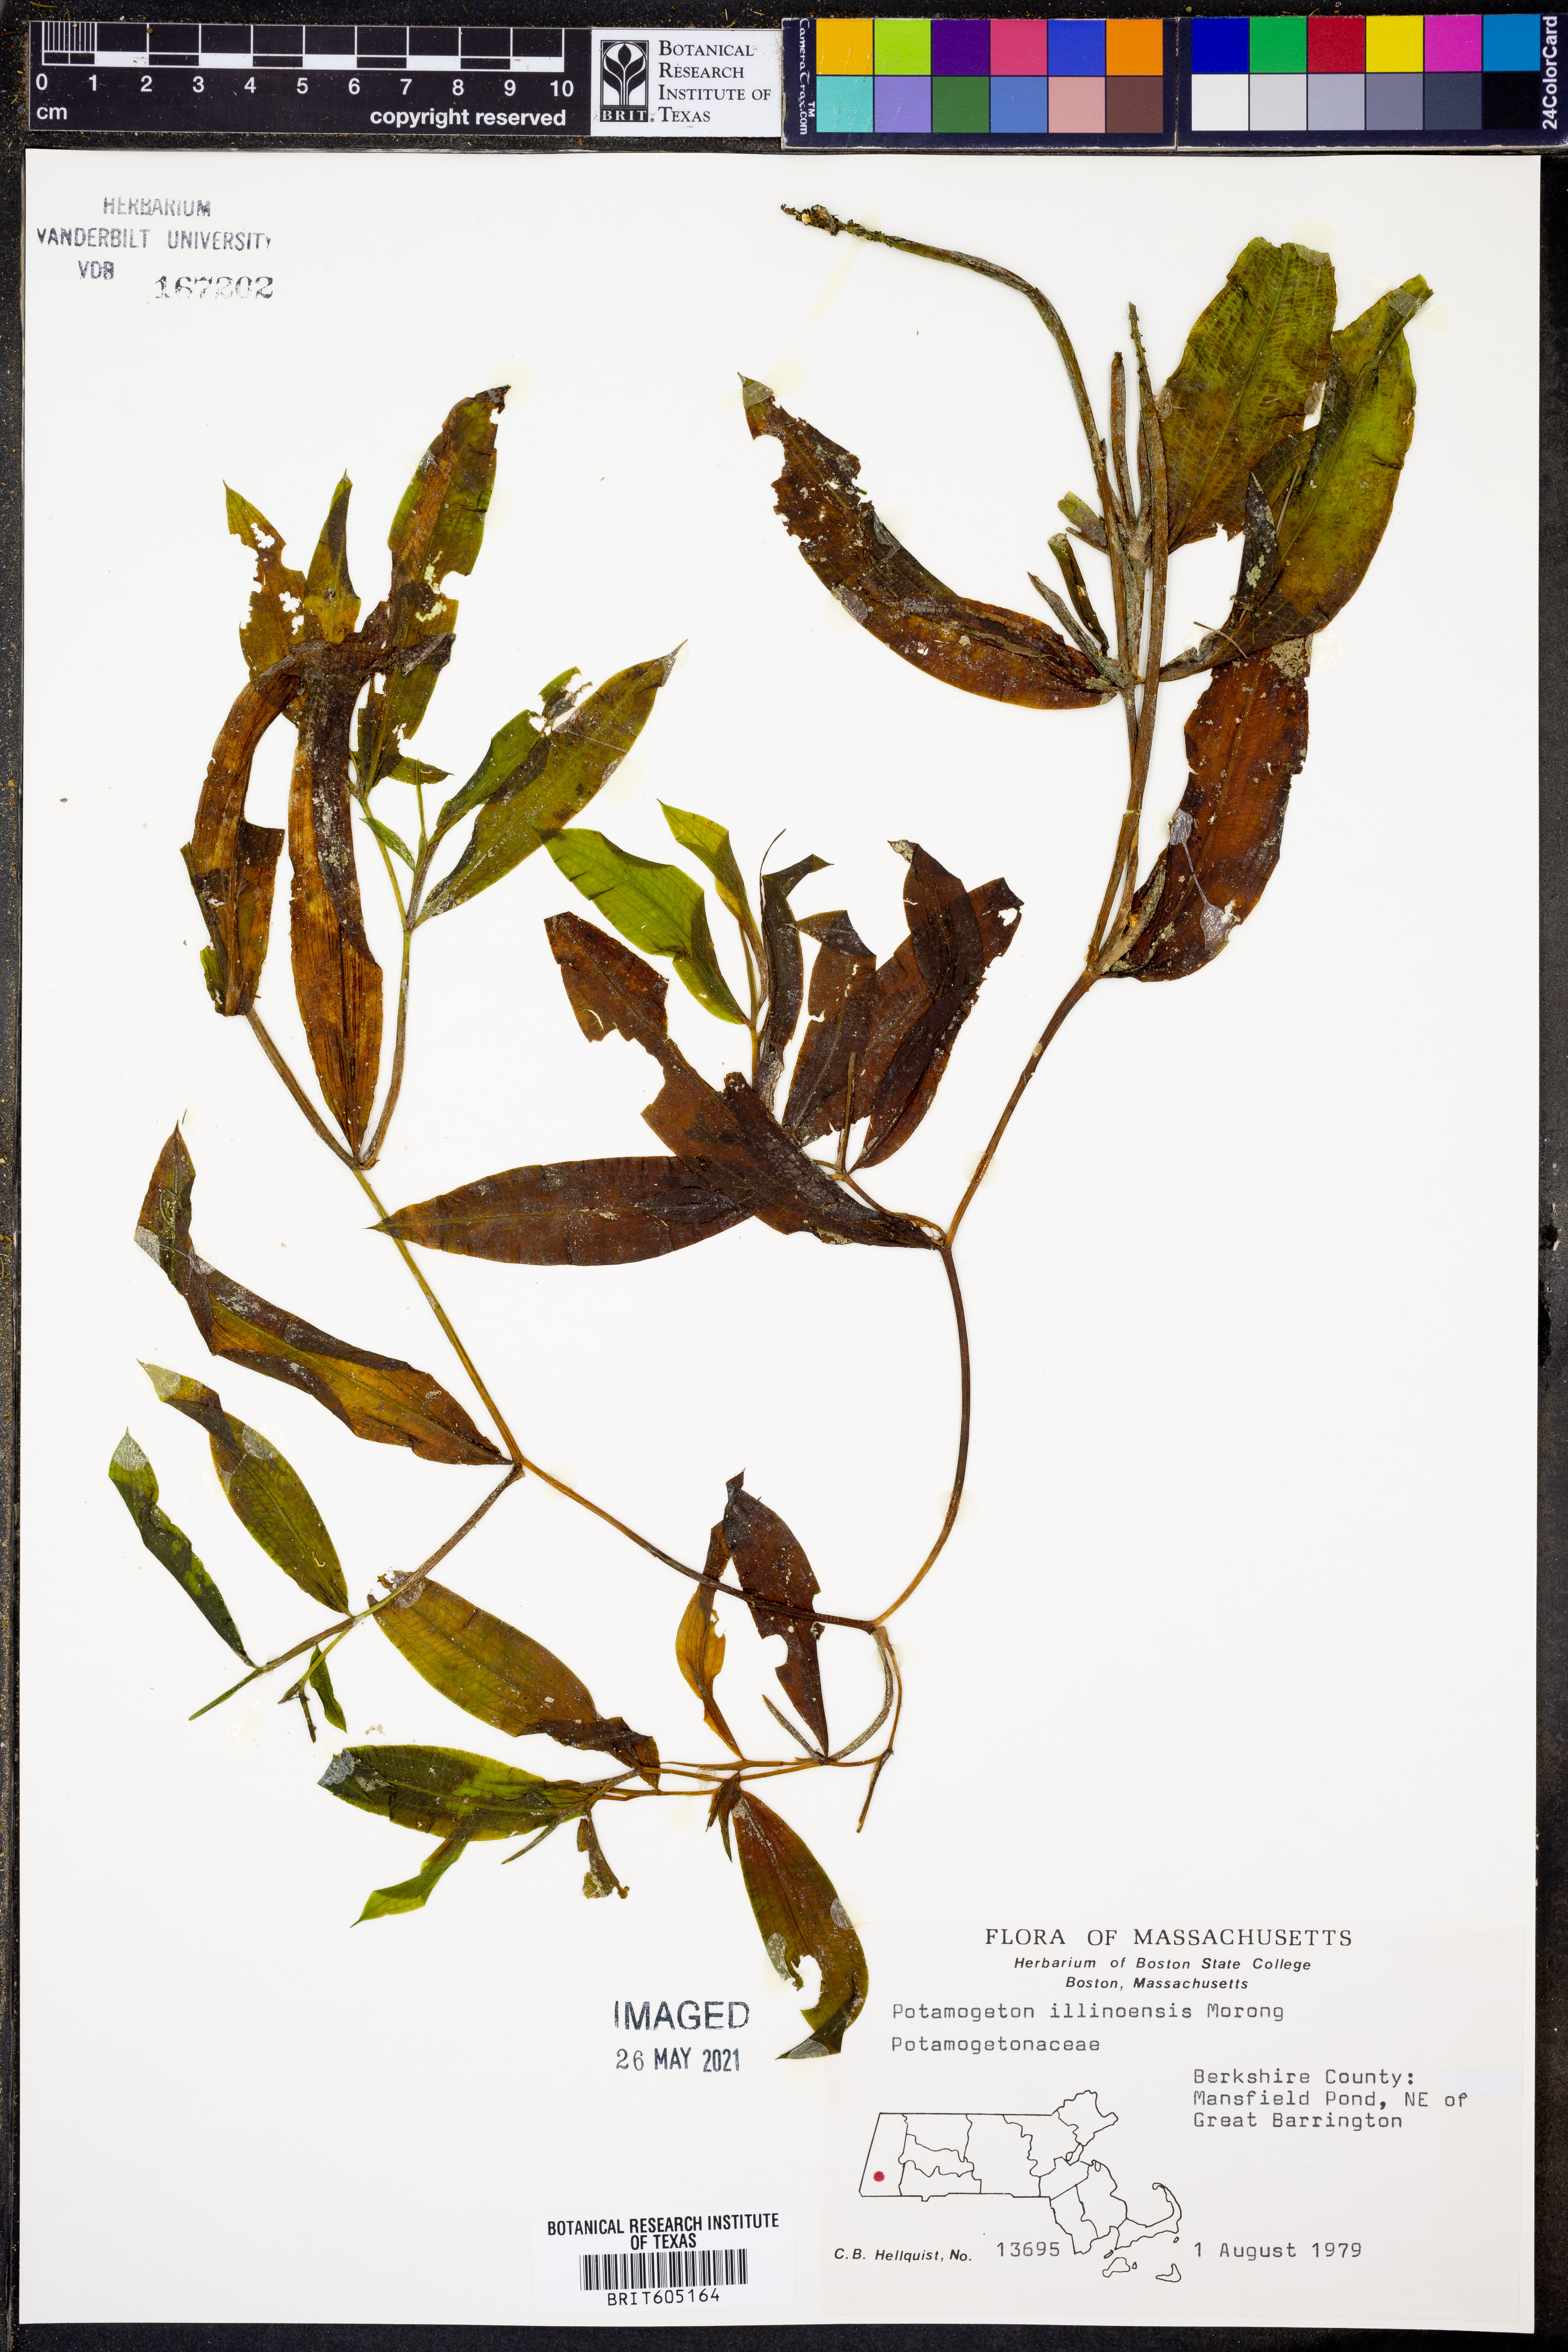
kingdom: Plantae
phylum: Tracheophyta
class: Liliopsida
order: Alismatales
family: Potamogetonaceae
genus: Potamogeton
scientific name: Potamogeton illinoensis
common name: Illinois pondweed
